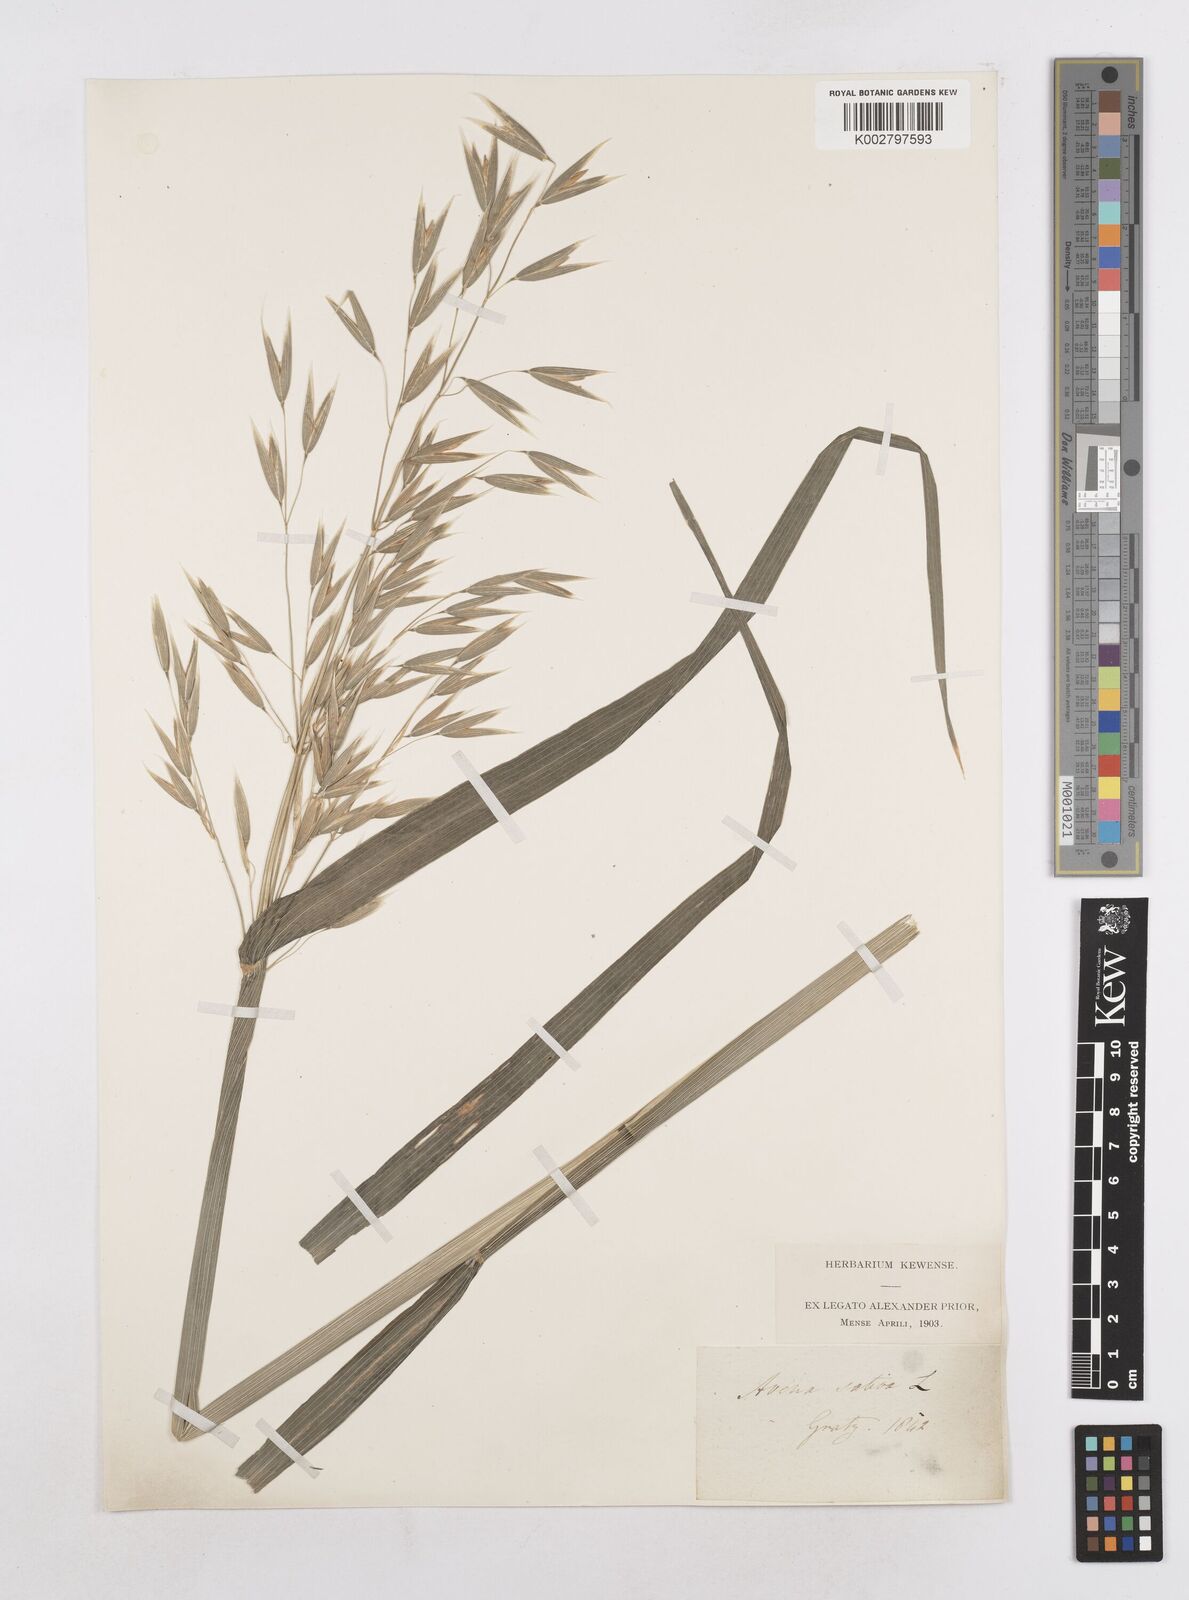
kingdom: Plantae
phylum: Tracheophyta
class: Liliopsida
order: Poales
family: Poaceae
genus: Avena
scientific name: Avena sativa
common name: Oat
